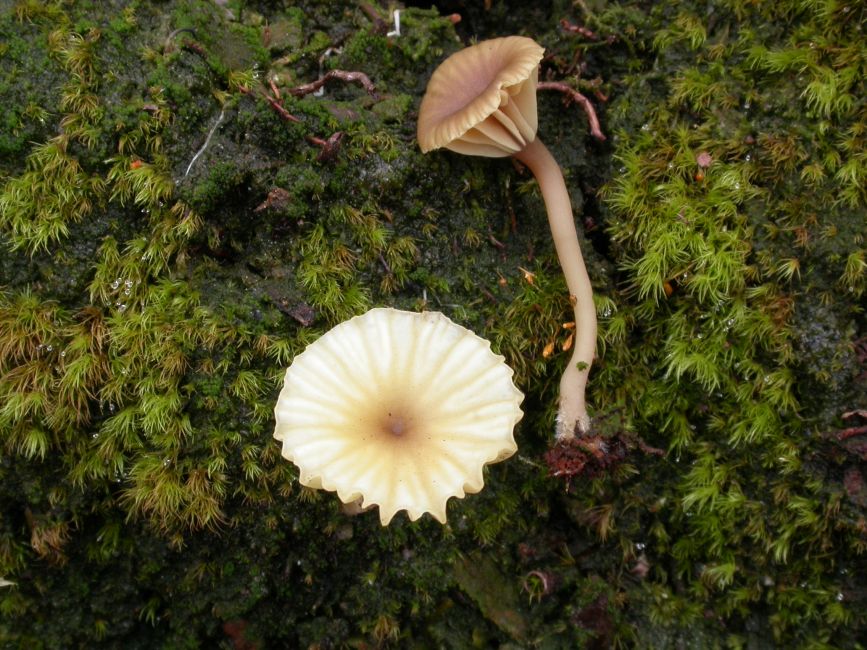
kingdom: Fungi
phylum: Basidiomycota
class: Agaricomycetes
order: Agaricales
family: Hygrophoraceae
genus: Lichenomphalia
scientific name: Lichenomphalia umbellifera
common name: tørve-lavhat
